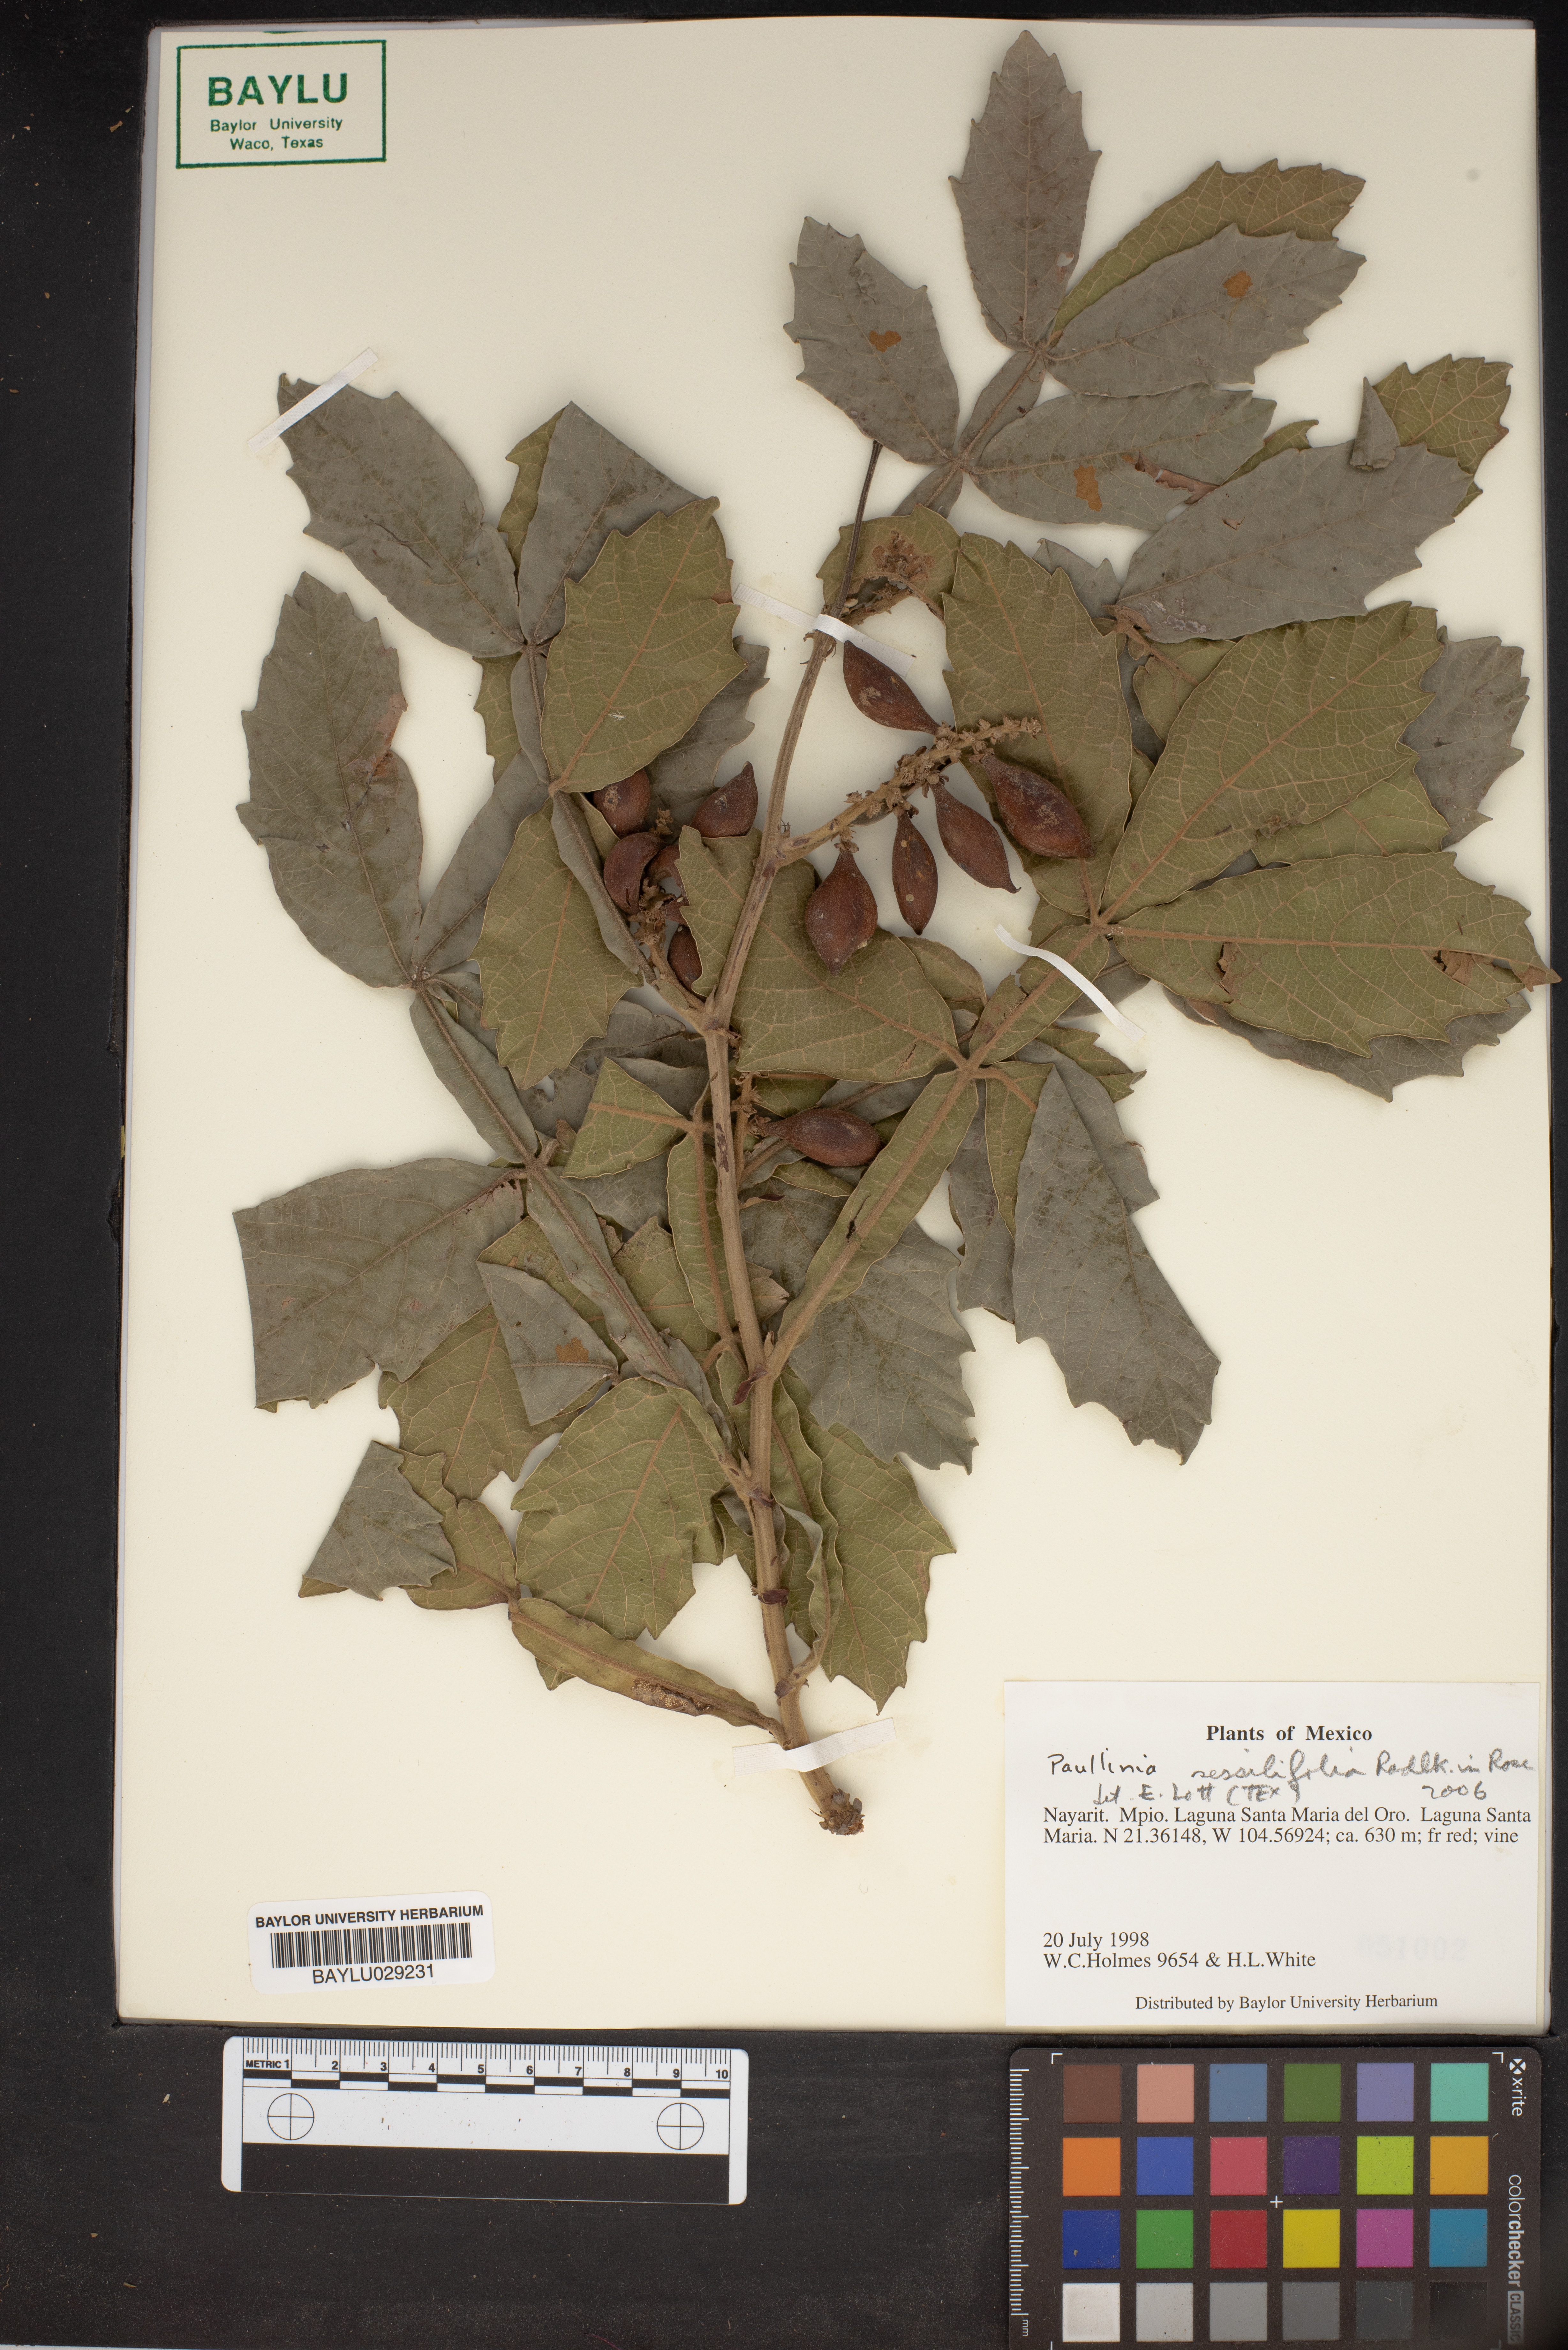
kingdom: Plantae
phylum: Tracheophyta
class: Magnoliopsida
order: Sapindales
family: Sapindaceae
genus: Paullinia
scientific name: Paullinia sessiliflora
